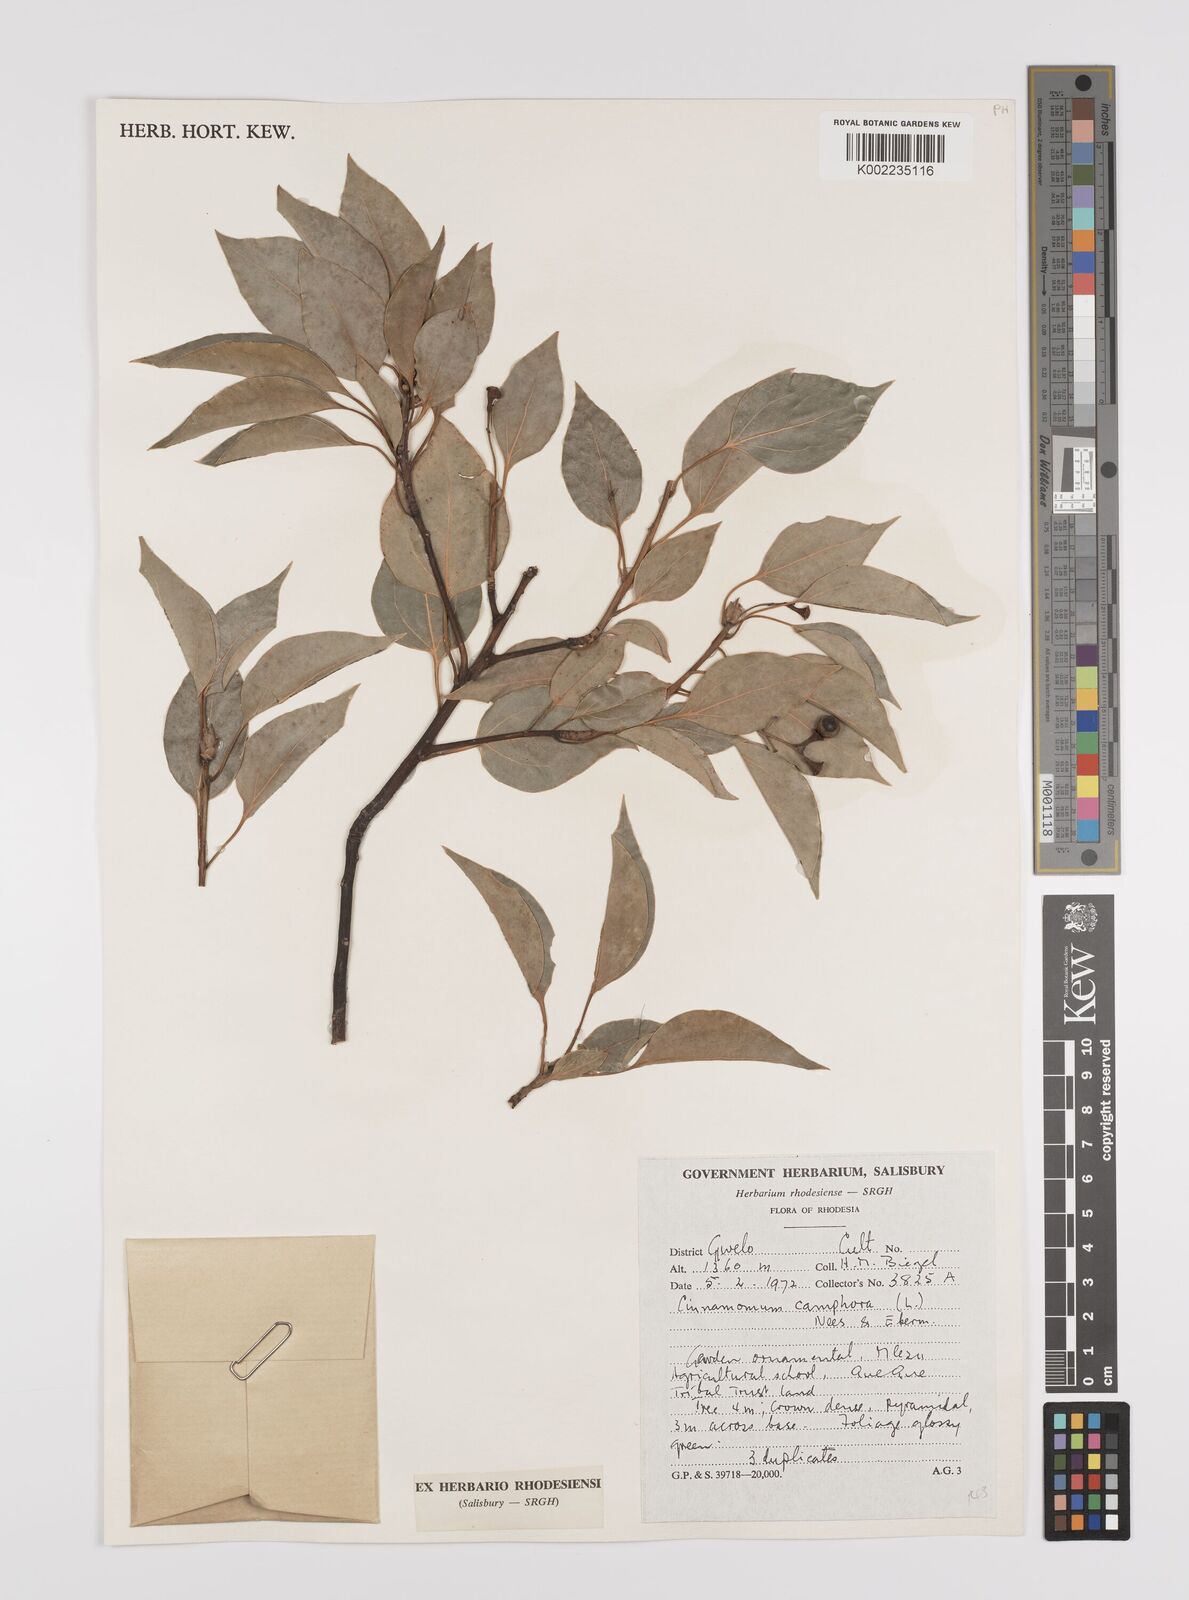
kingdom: Plantae
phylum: Tracheophyta
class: Magnoliopsida
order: Laurales
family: Lauraceae
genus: Cinnamomum
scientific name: Cinnamomum camphora
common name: Camphortree
